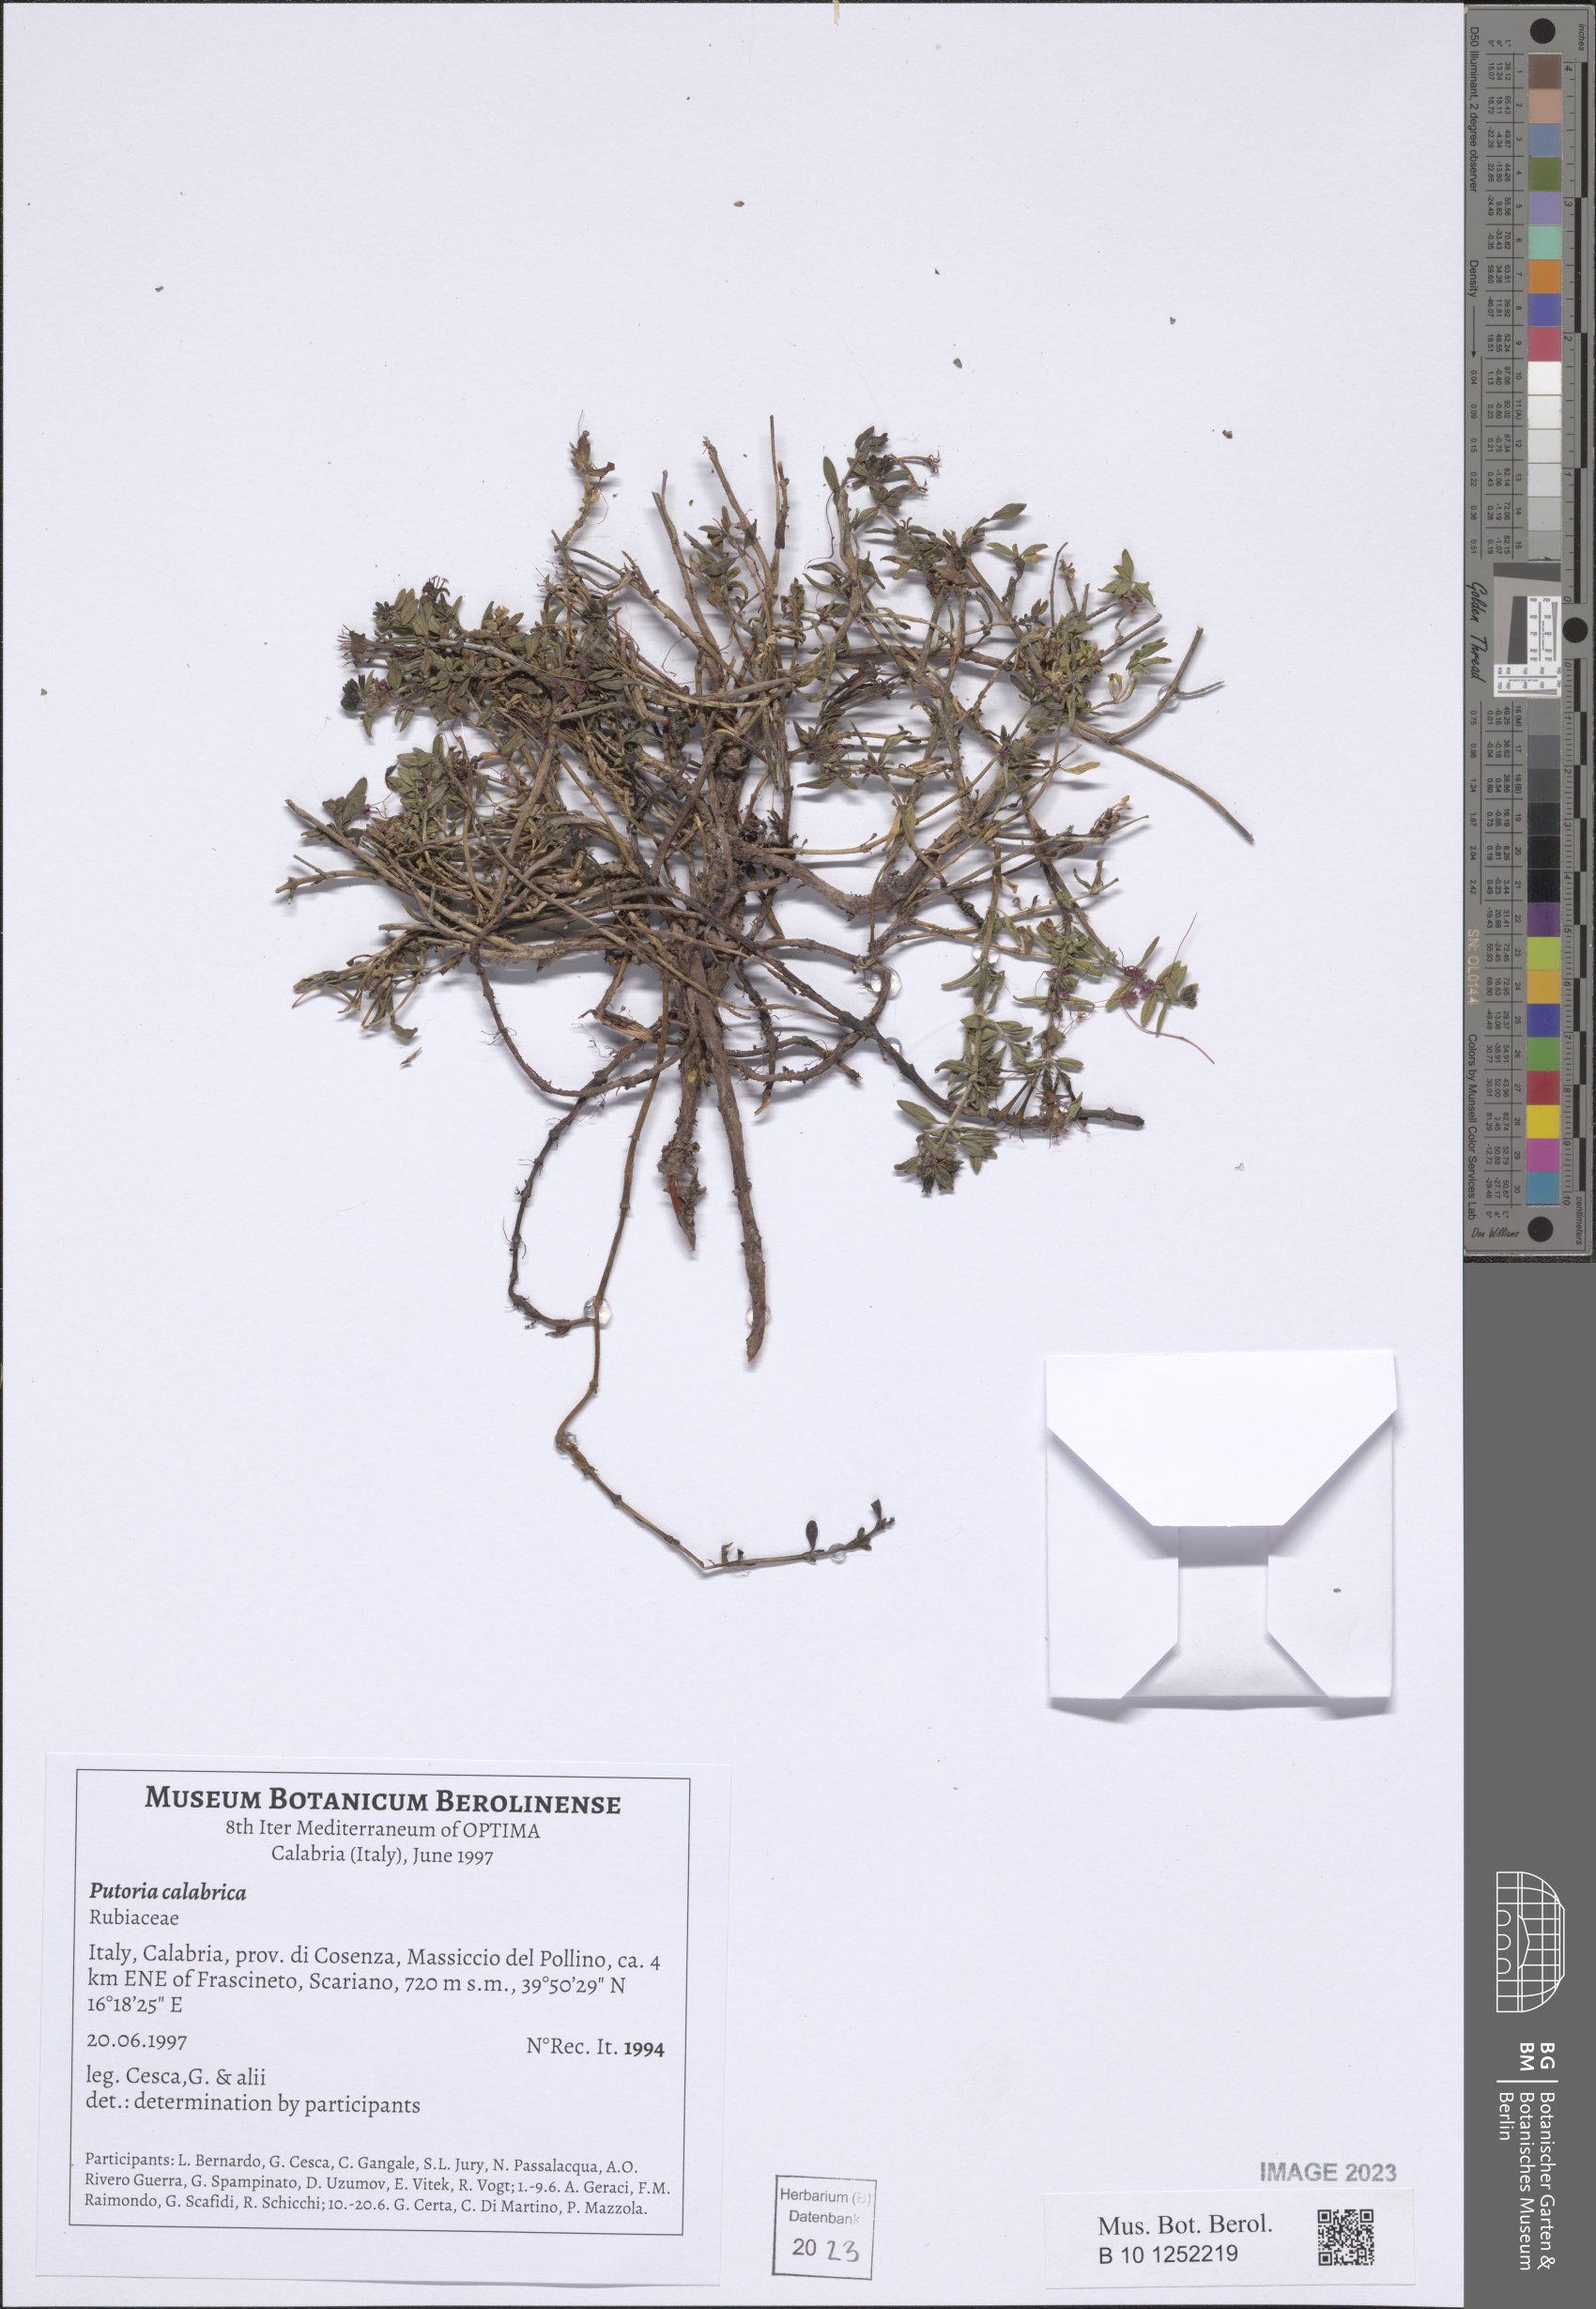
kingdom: Plantae
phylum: Tracheophyta
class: Magnoliopsida
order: Gentianales
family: Rubiaceae
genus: Plocama
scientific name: Plocama calabrica
